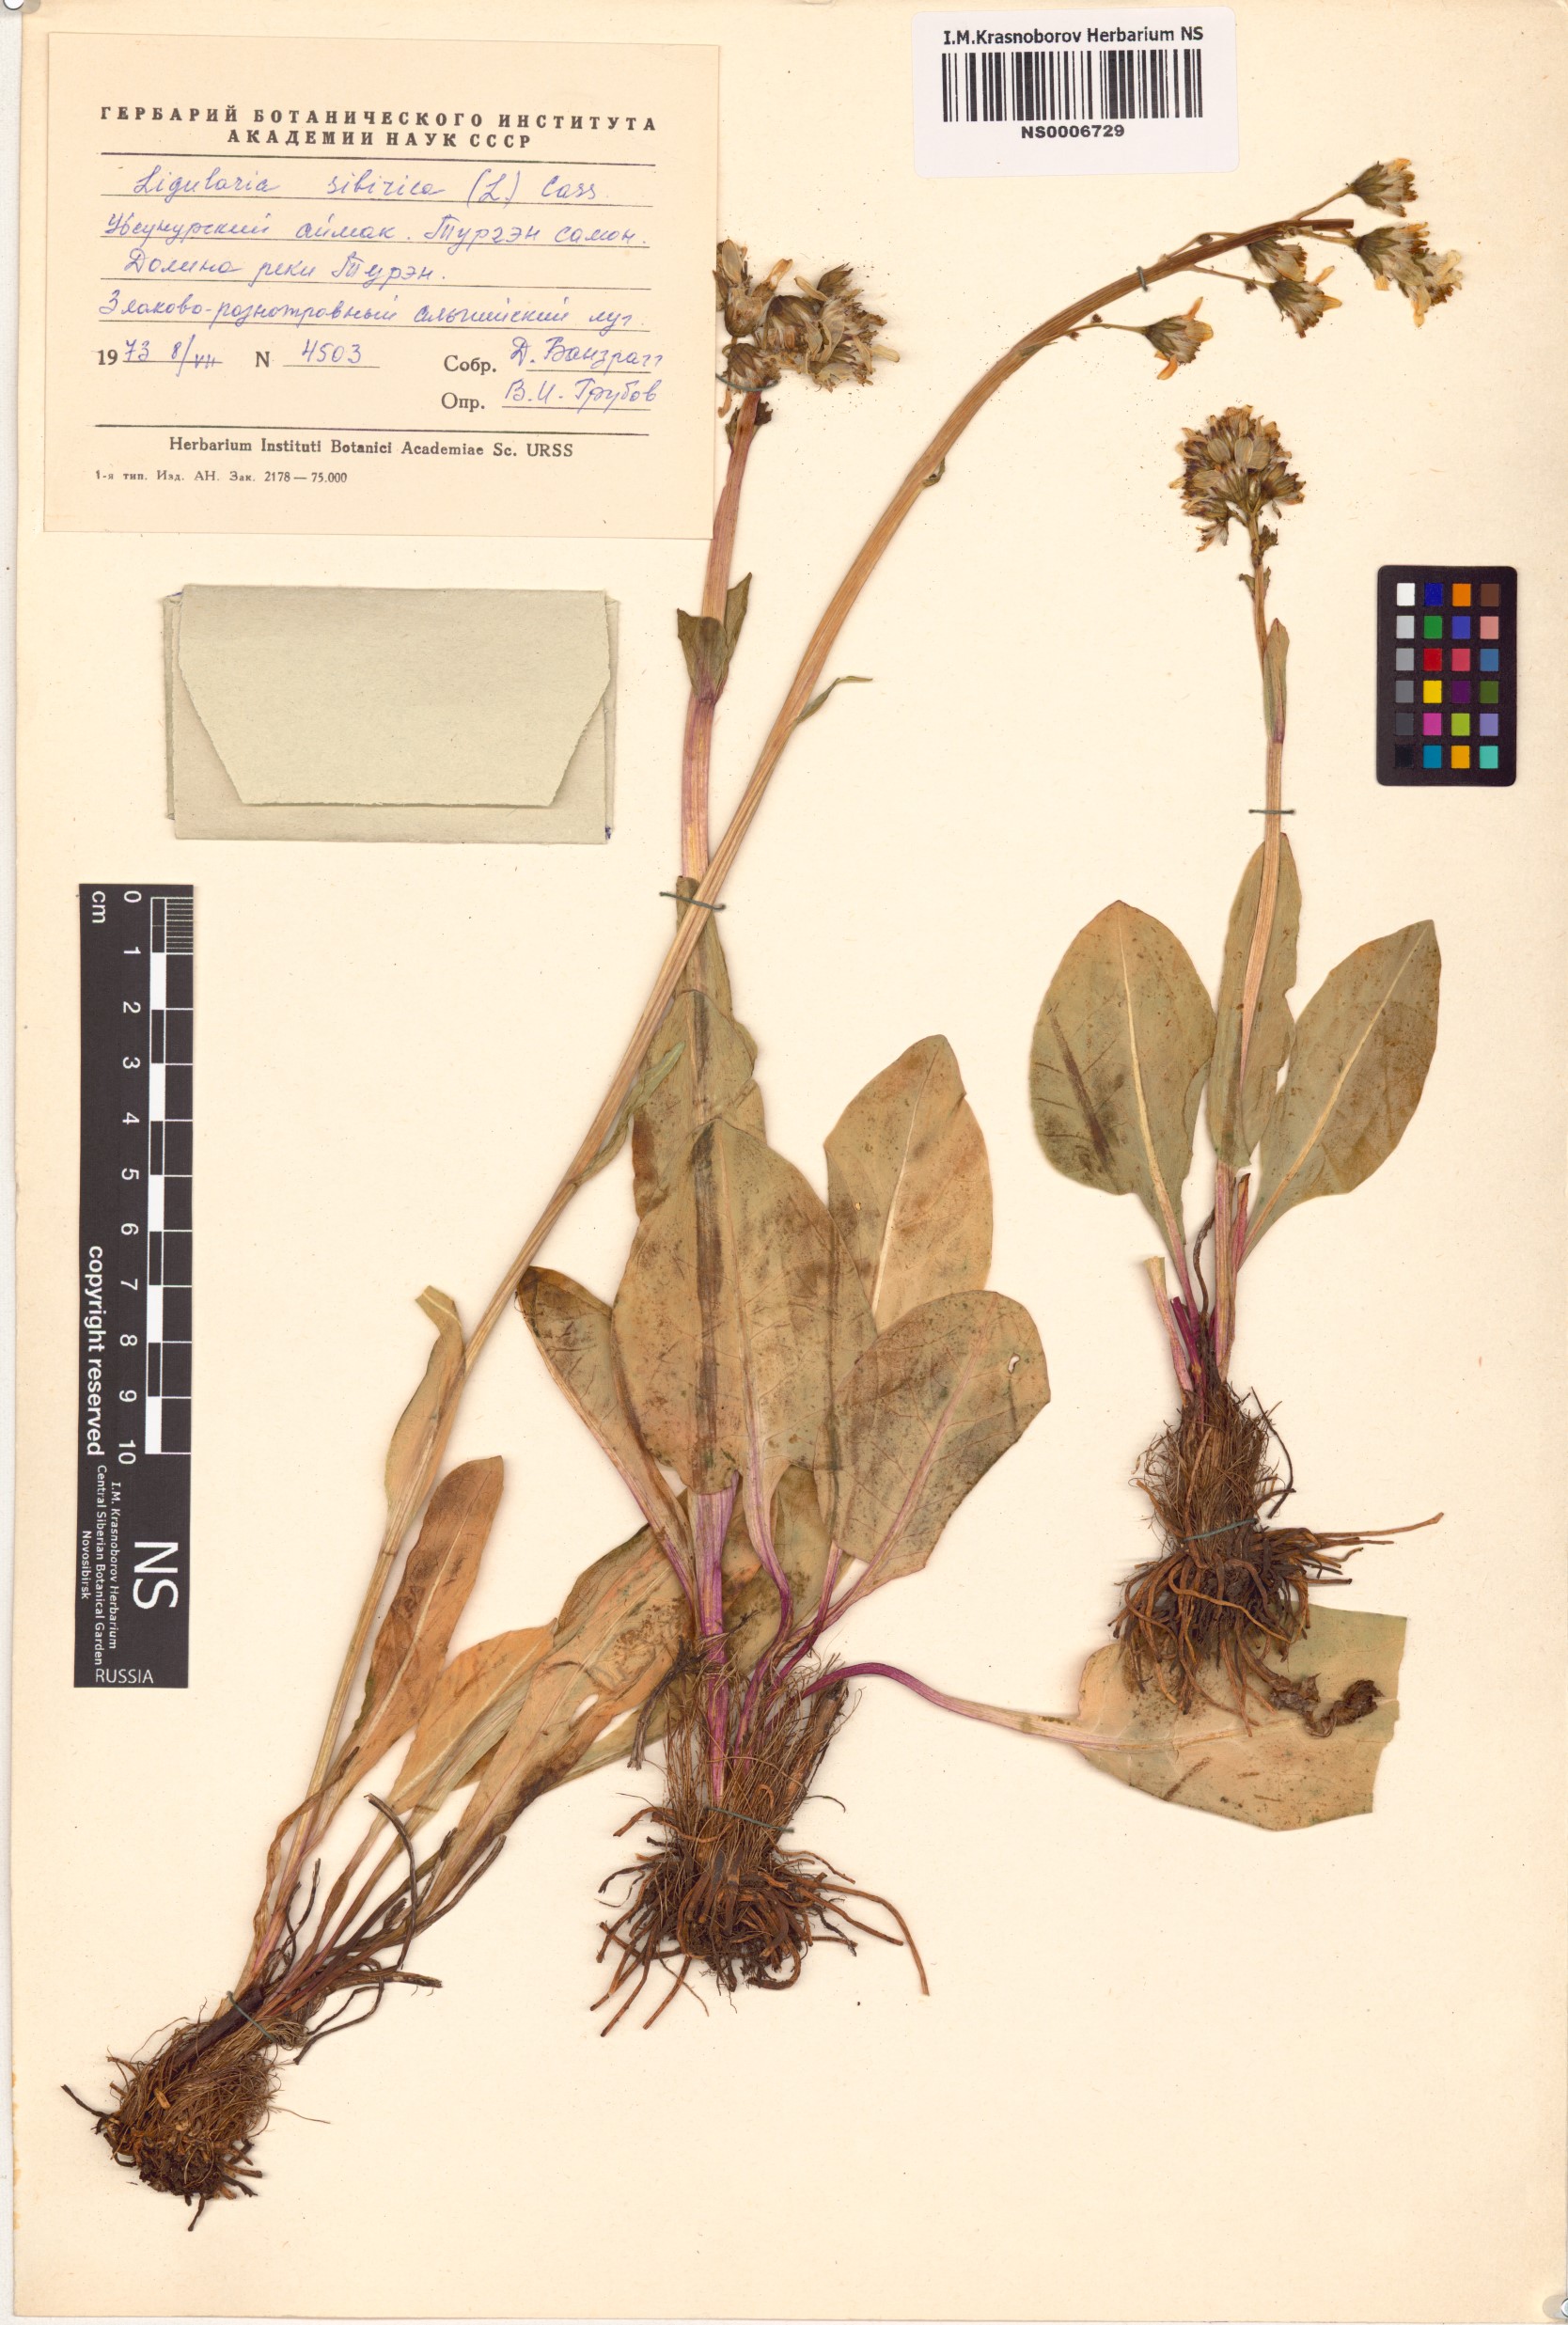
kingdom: Plantae
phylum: Tracheophyta
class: Magnoliopsida
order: Asterales
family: Asteraceae
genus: Ligularia
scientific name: Ligularia sibirica
